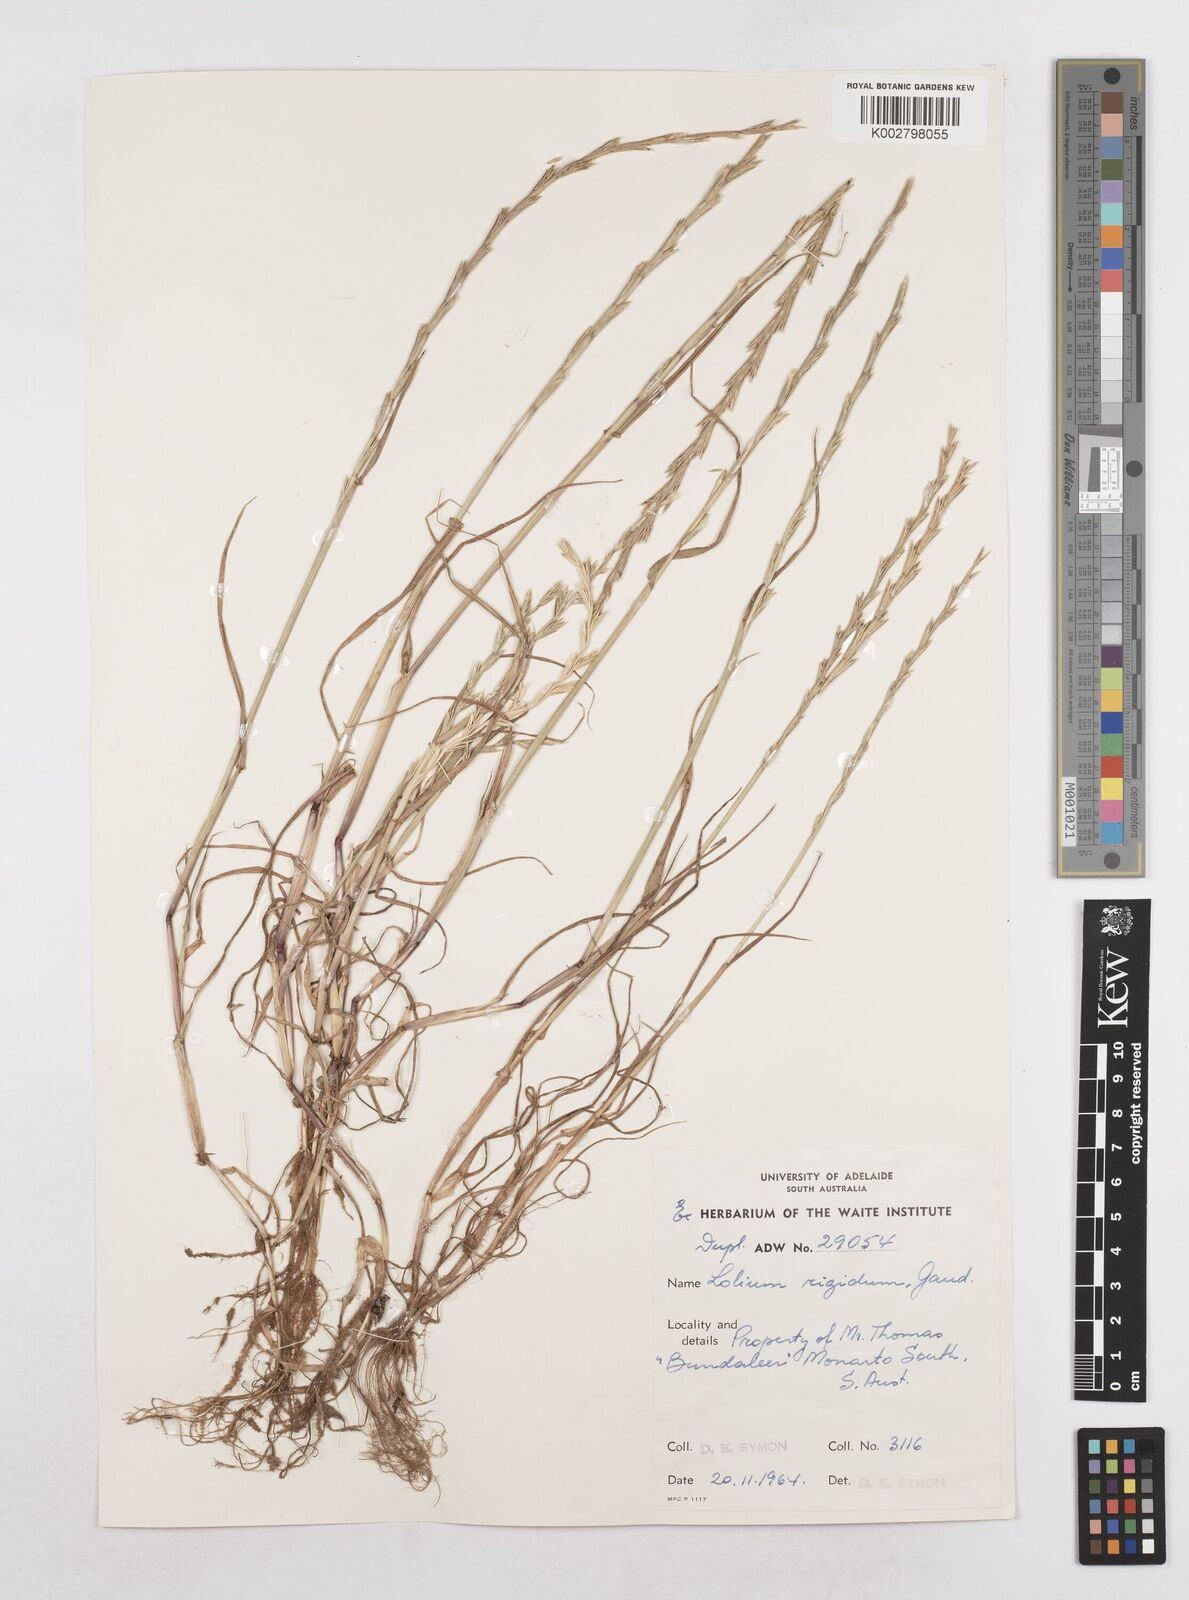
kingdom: Plantae
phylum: Tracheophyta
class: Liliopsida
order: Poales
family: Poaceae
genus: Lolium
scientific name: Lolium
